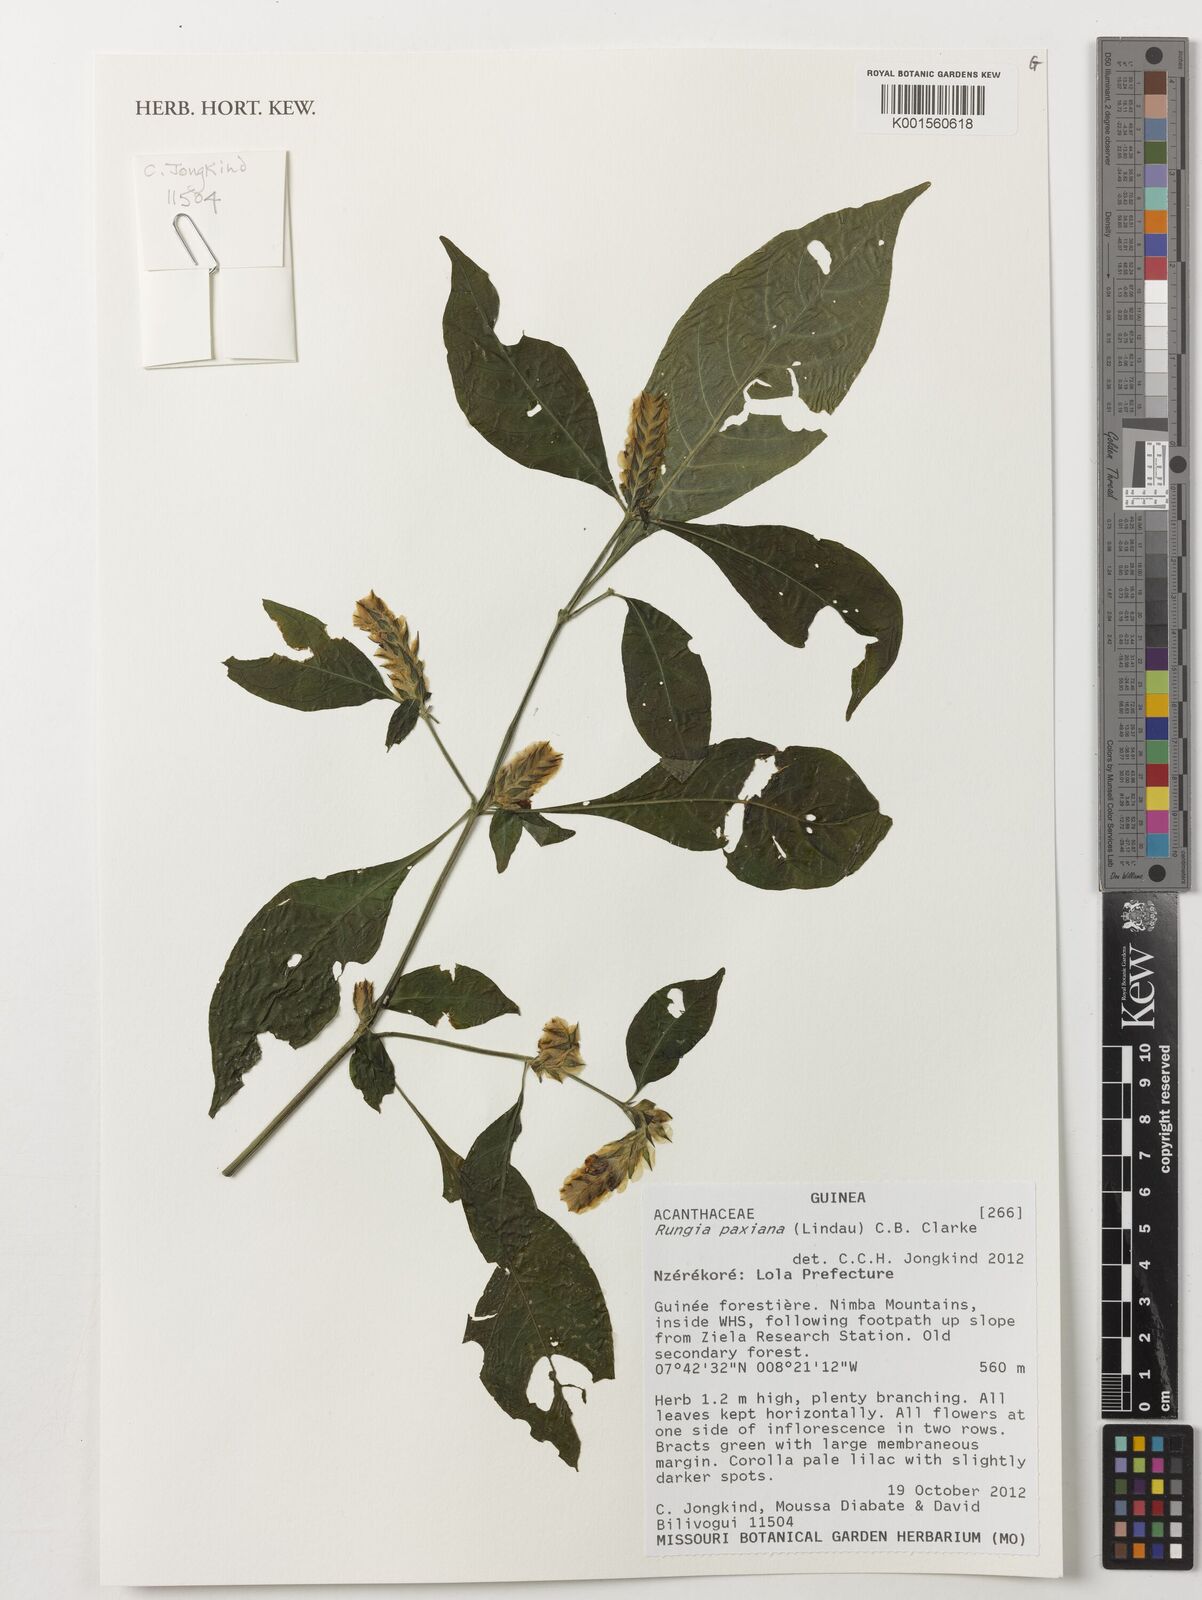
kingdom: Plantae
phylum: Tracheophyta
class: Magnoliopsida
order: Lamiales
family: Acanthaceae
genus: Rungia
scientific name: Rungia paxiana
